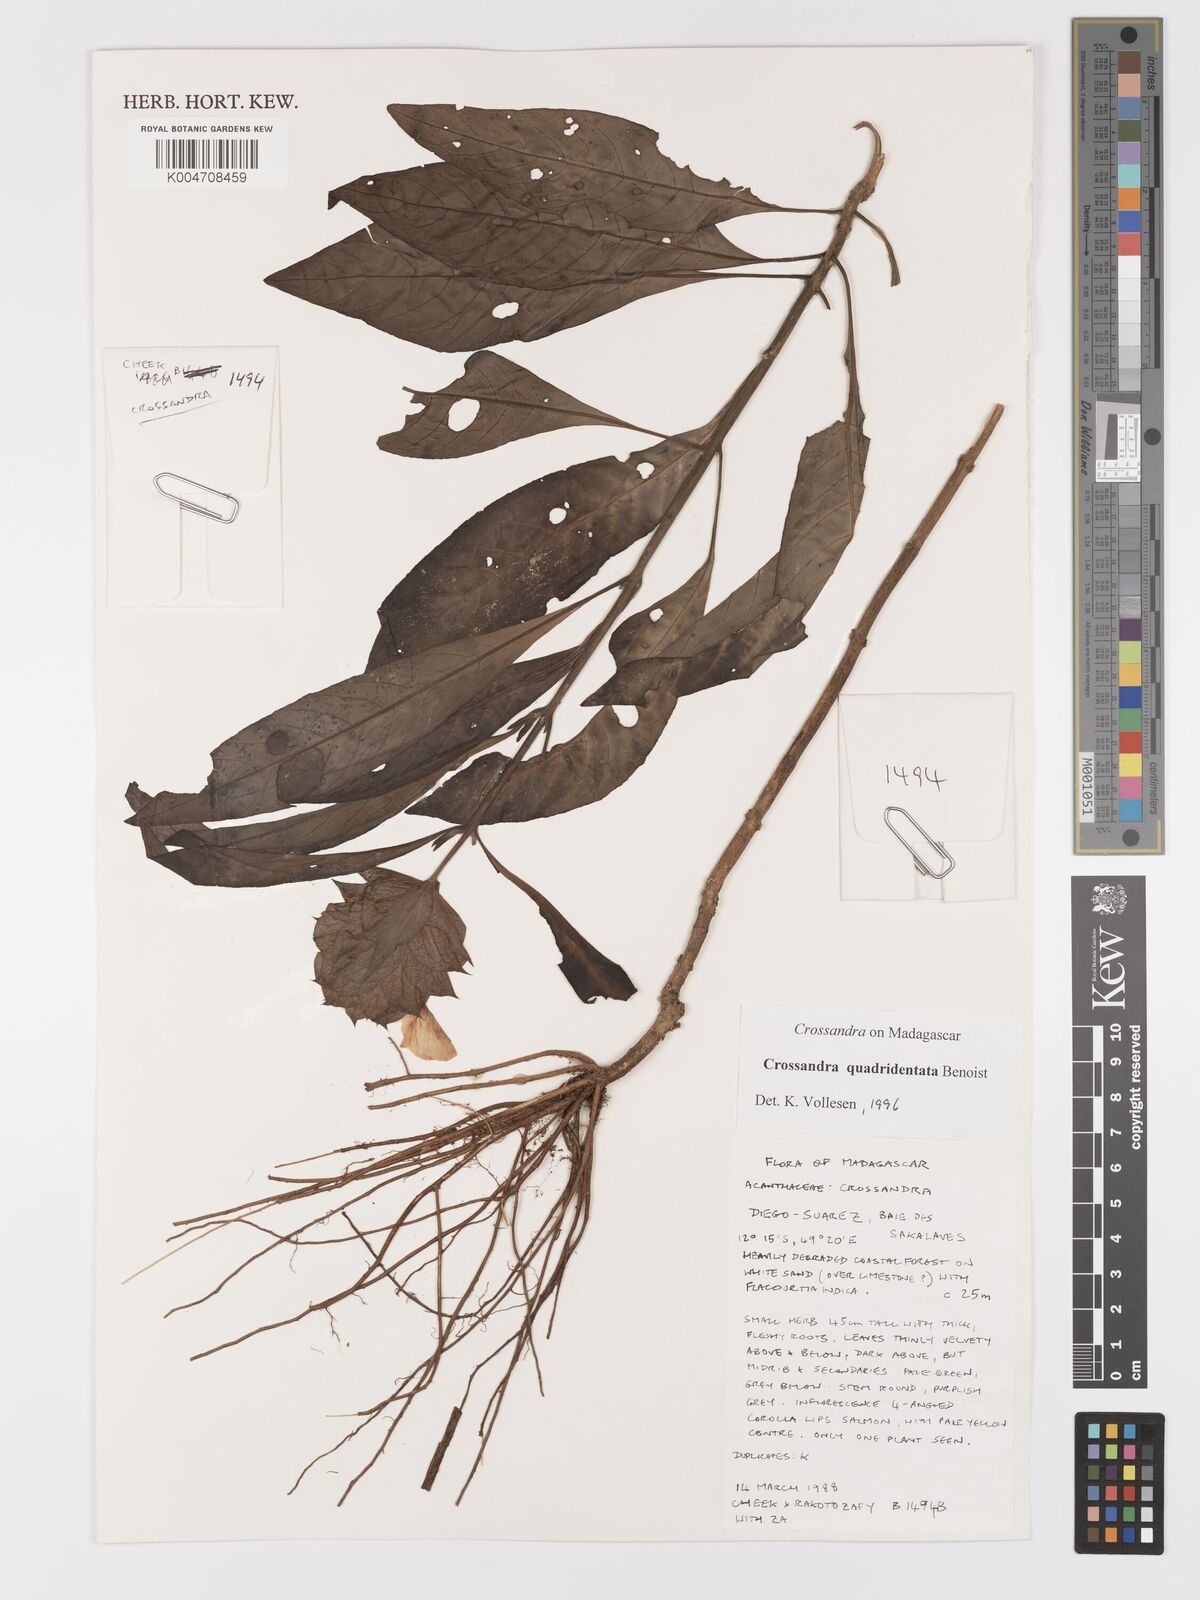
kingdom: Plantae
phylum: Tracheophyta
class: Magnoliopsida
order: Lamiales
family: Acanthaceae
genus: Crossandra
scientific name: Crossandra quadridentata
